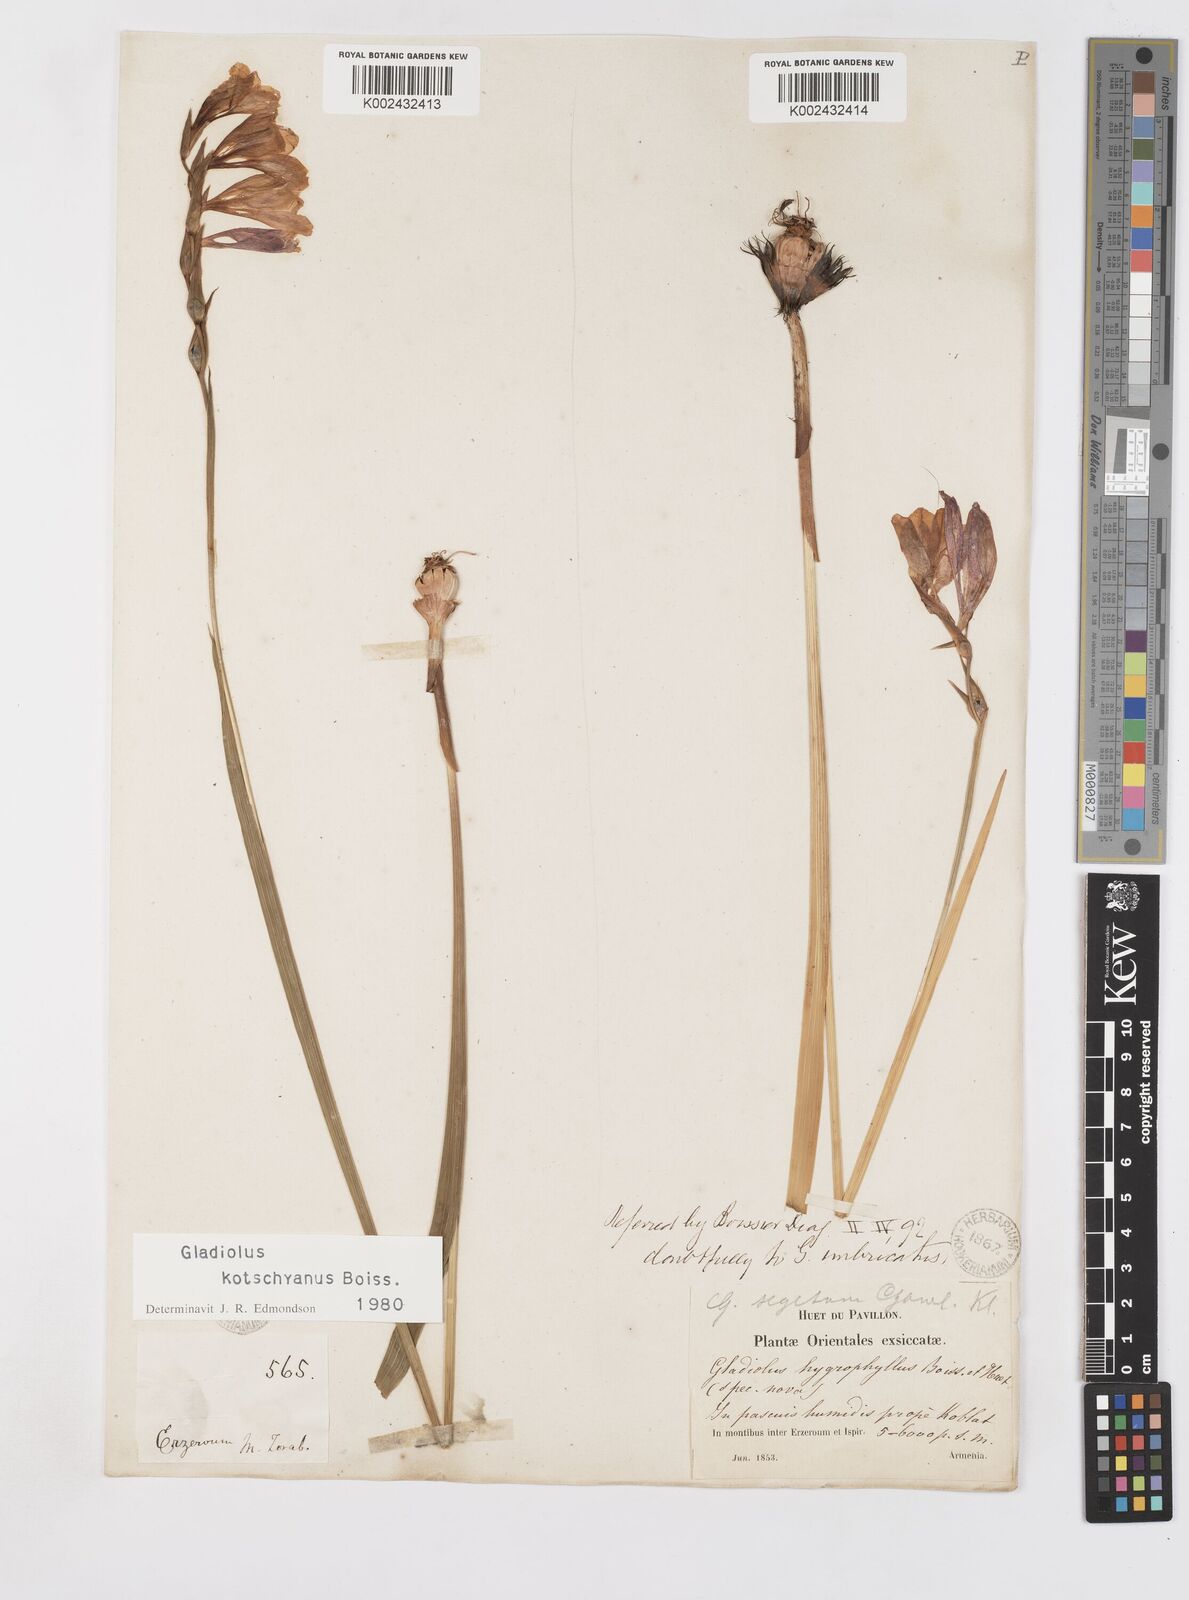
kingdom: Plantae
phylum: Tracheophyta
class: Liliopsida
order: Asparagales
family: Iridaceae
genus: Gladiolus
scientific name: Gladiolus kotschyanus
